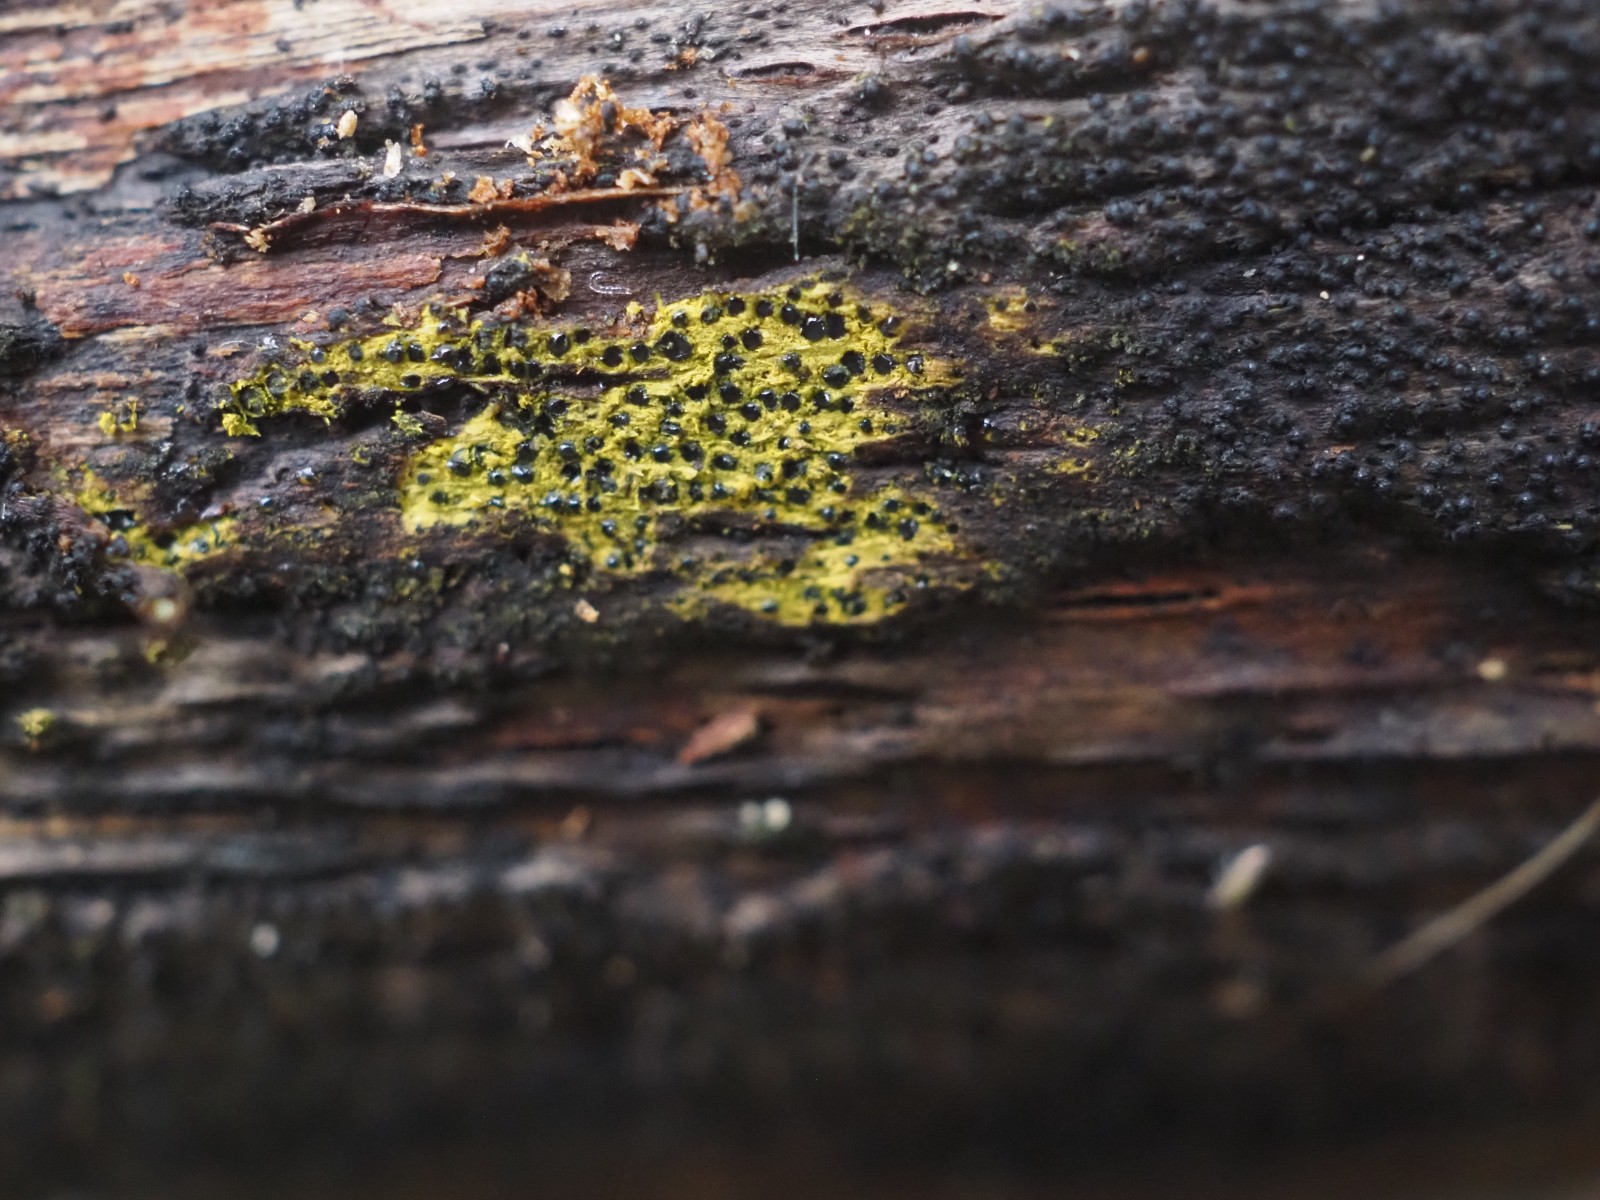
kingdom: Fungi
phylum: Ascomycota
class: Sordariomycetes
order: Xylariales
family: Diatrypaceae
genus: Eutypa
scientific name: Eutypa flavovirens
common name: grønkødet kulskorpe
